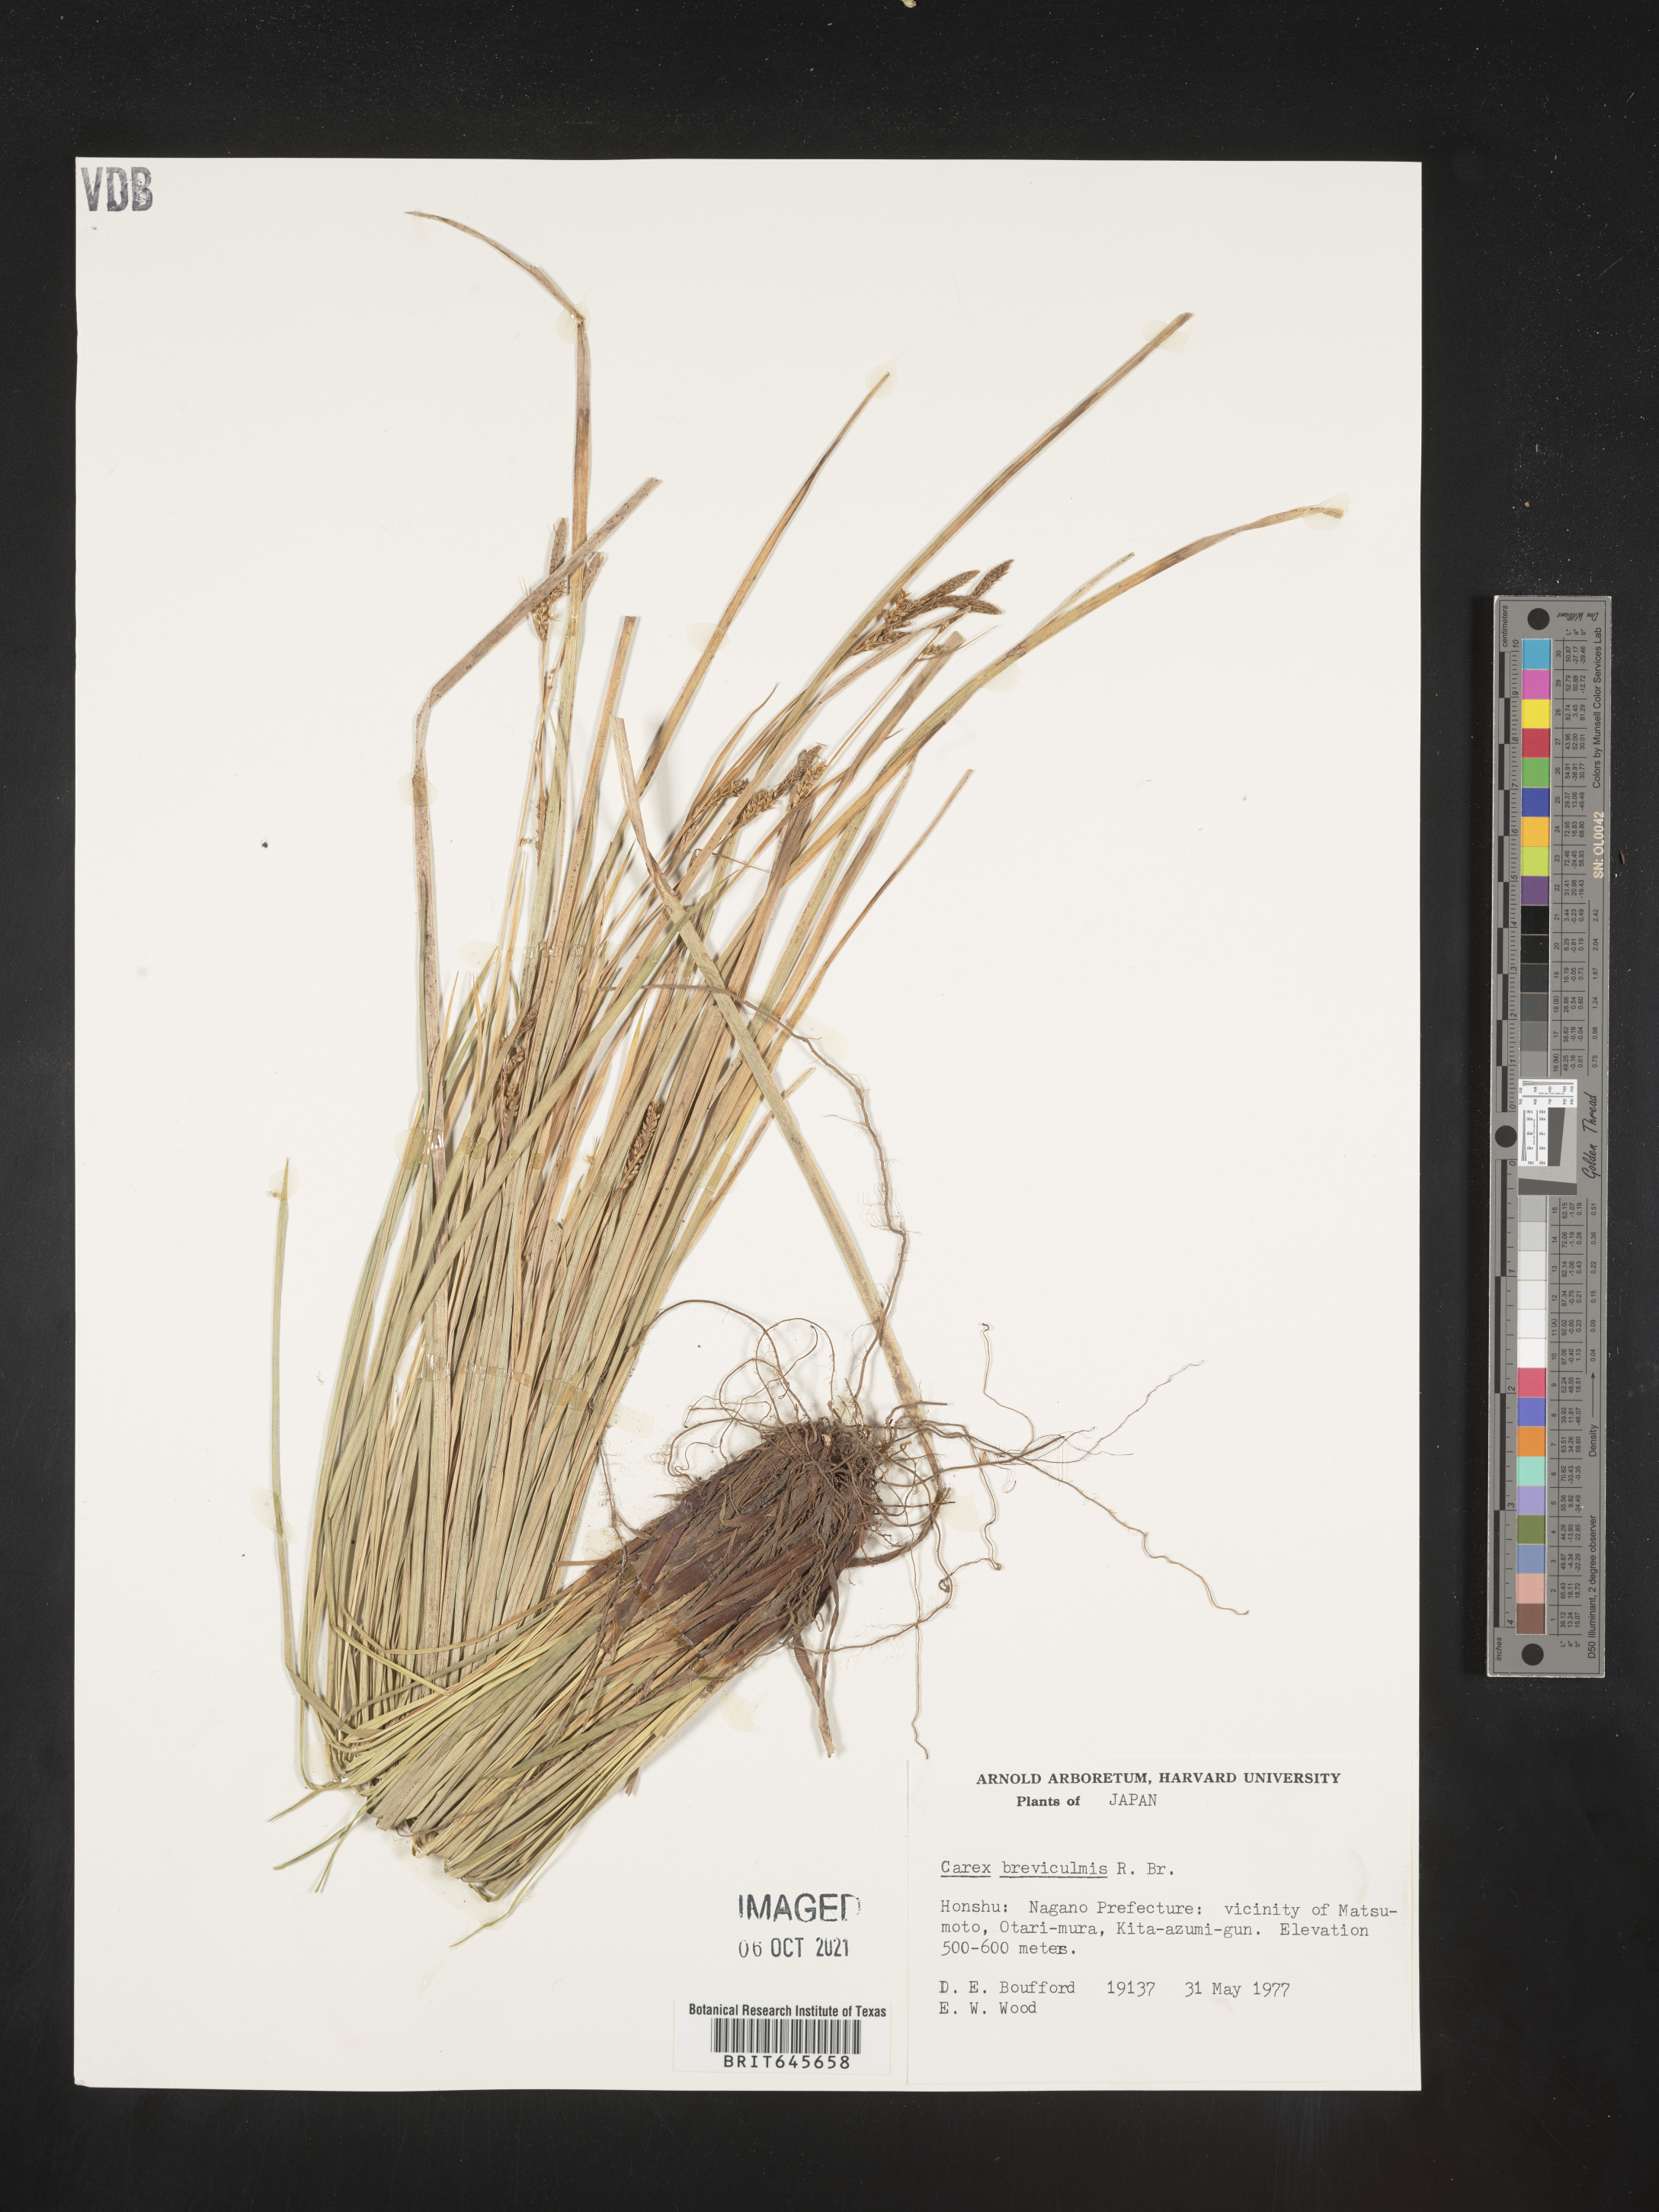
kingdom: Plantae
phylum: Tracheophyta
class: Liliopsida
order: Poales
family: Cyperaceae
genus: Carex
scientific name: Carex breviculmis
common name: Asian shortstem sedge
